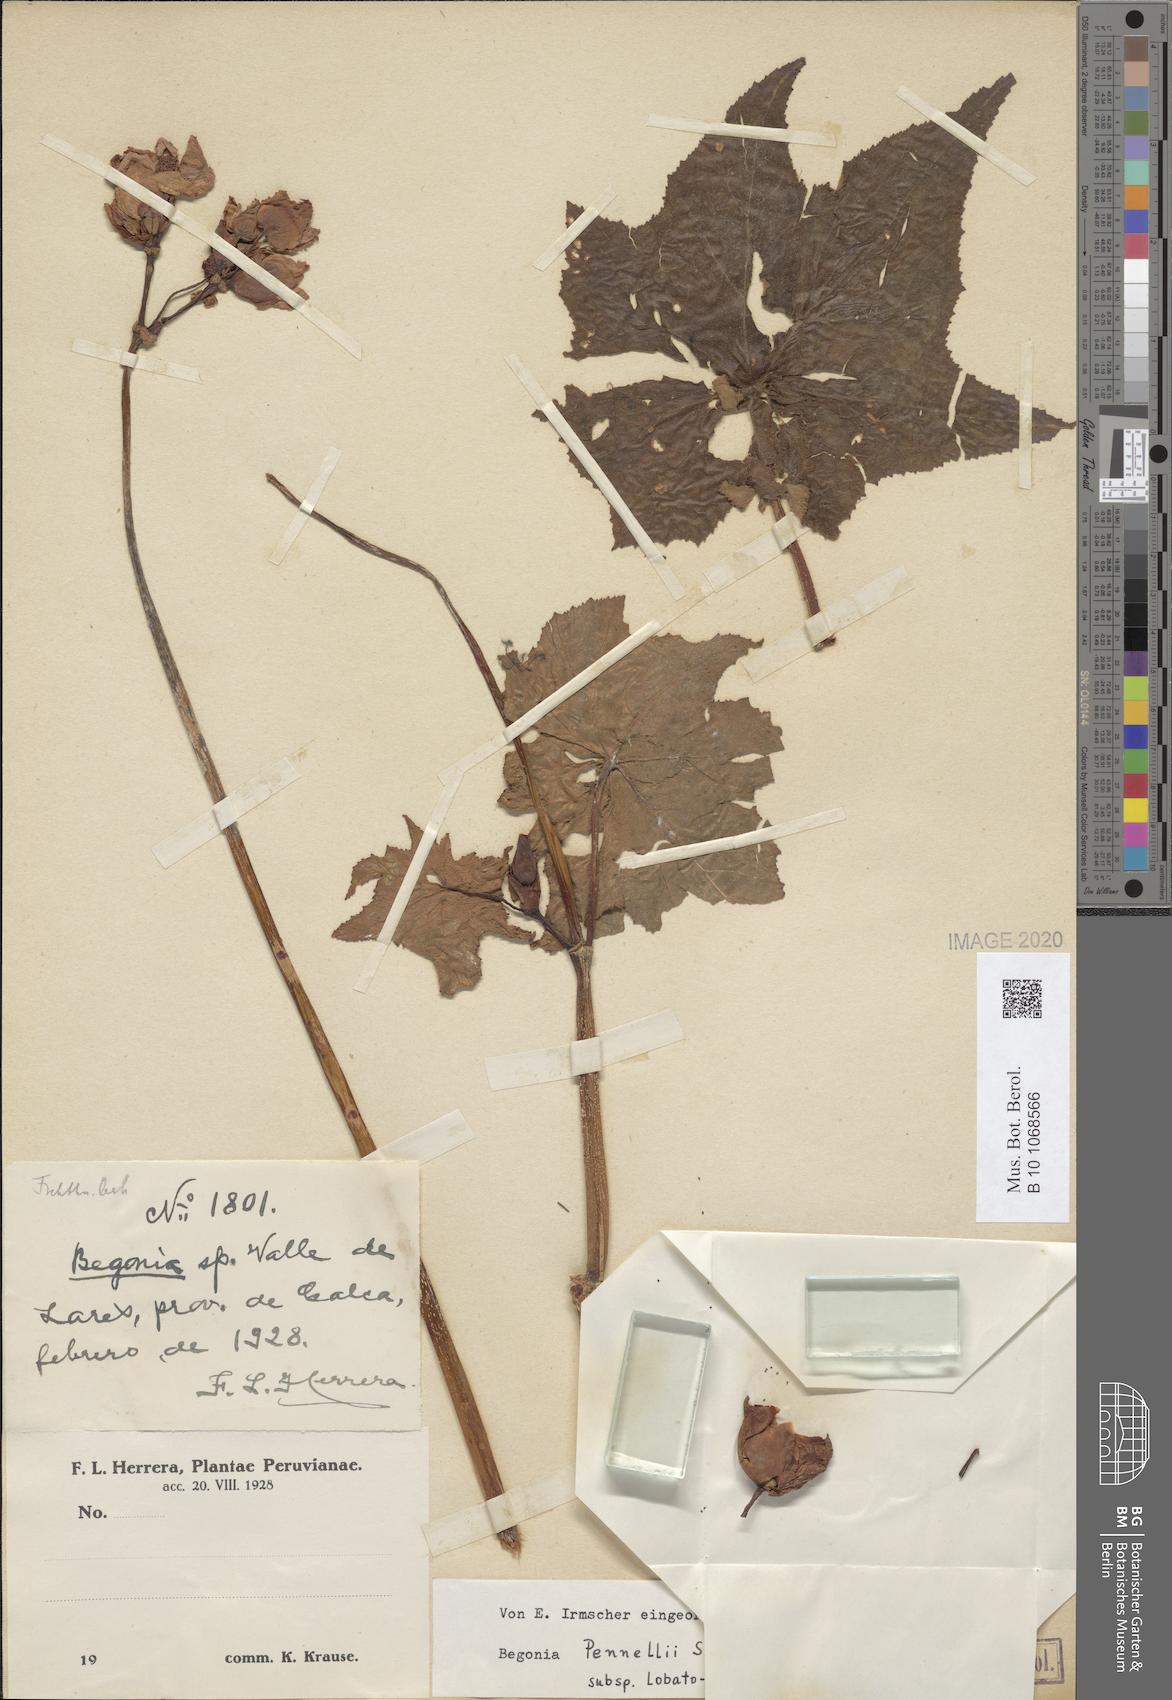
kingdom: Plantae
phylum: Tracheophyta
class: Magnoliopsida
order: Cucurbitales
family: Begoniaceae
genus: Begonia
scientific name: Begonia acerifolia
